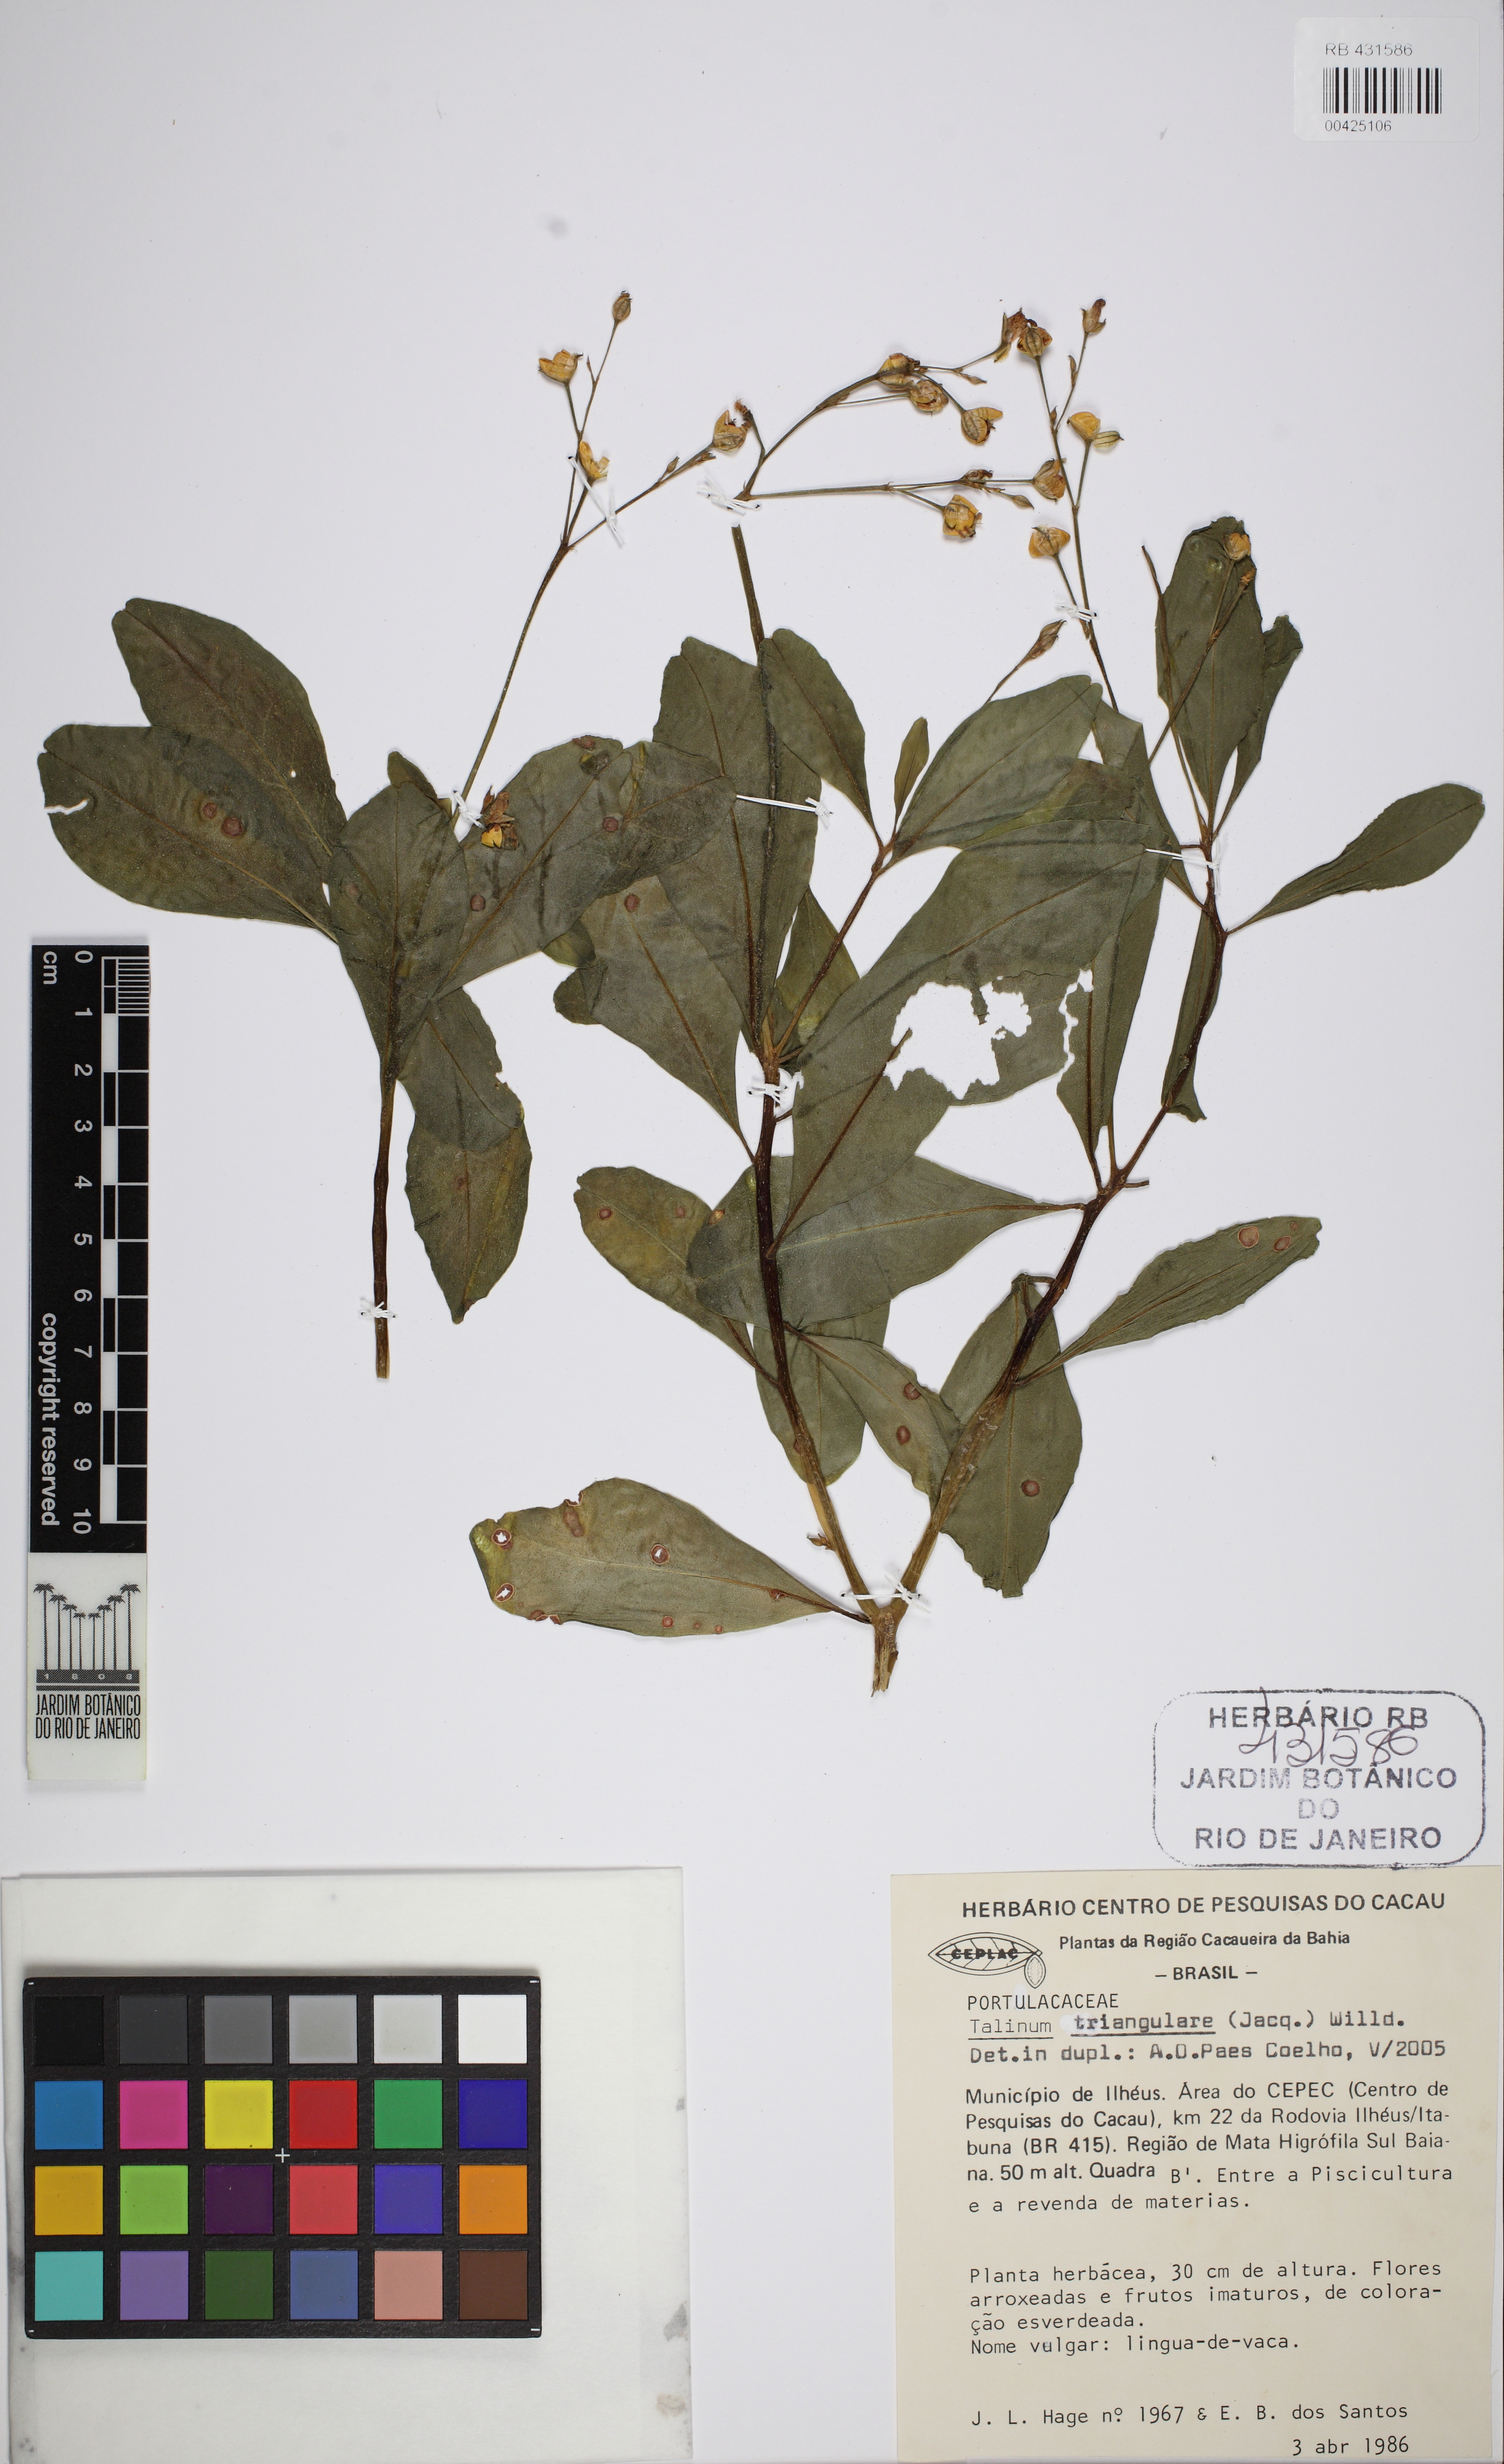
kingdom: Plantae
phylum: Tracheophyta
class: Magnoliopsida
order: Caryophyllales
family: Talinaceae
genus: Talinum
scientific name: Talinum fruticosum
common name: Verdolaga-francesa
